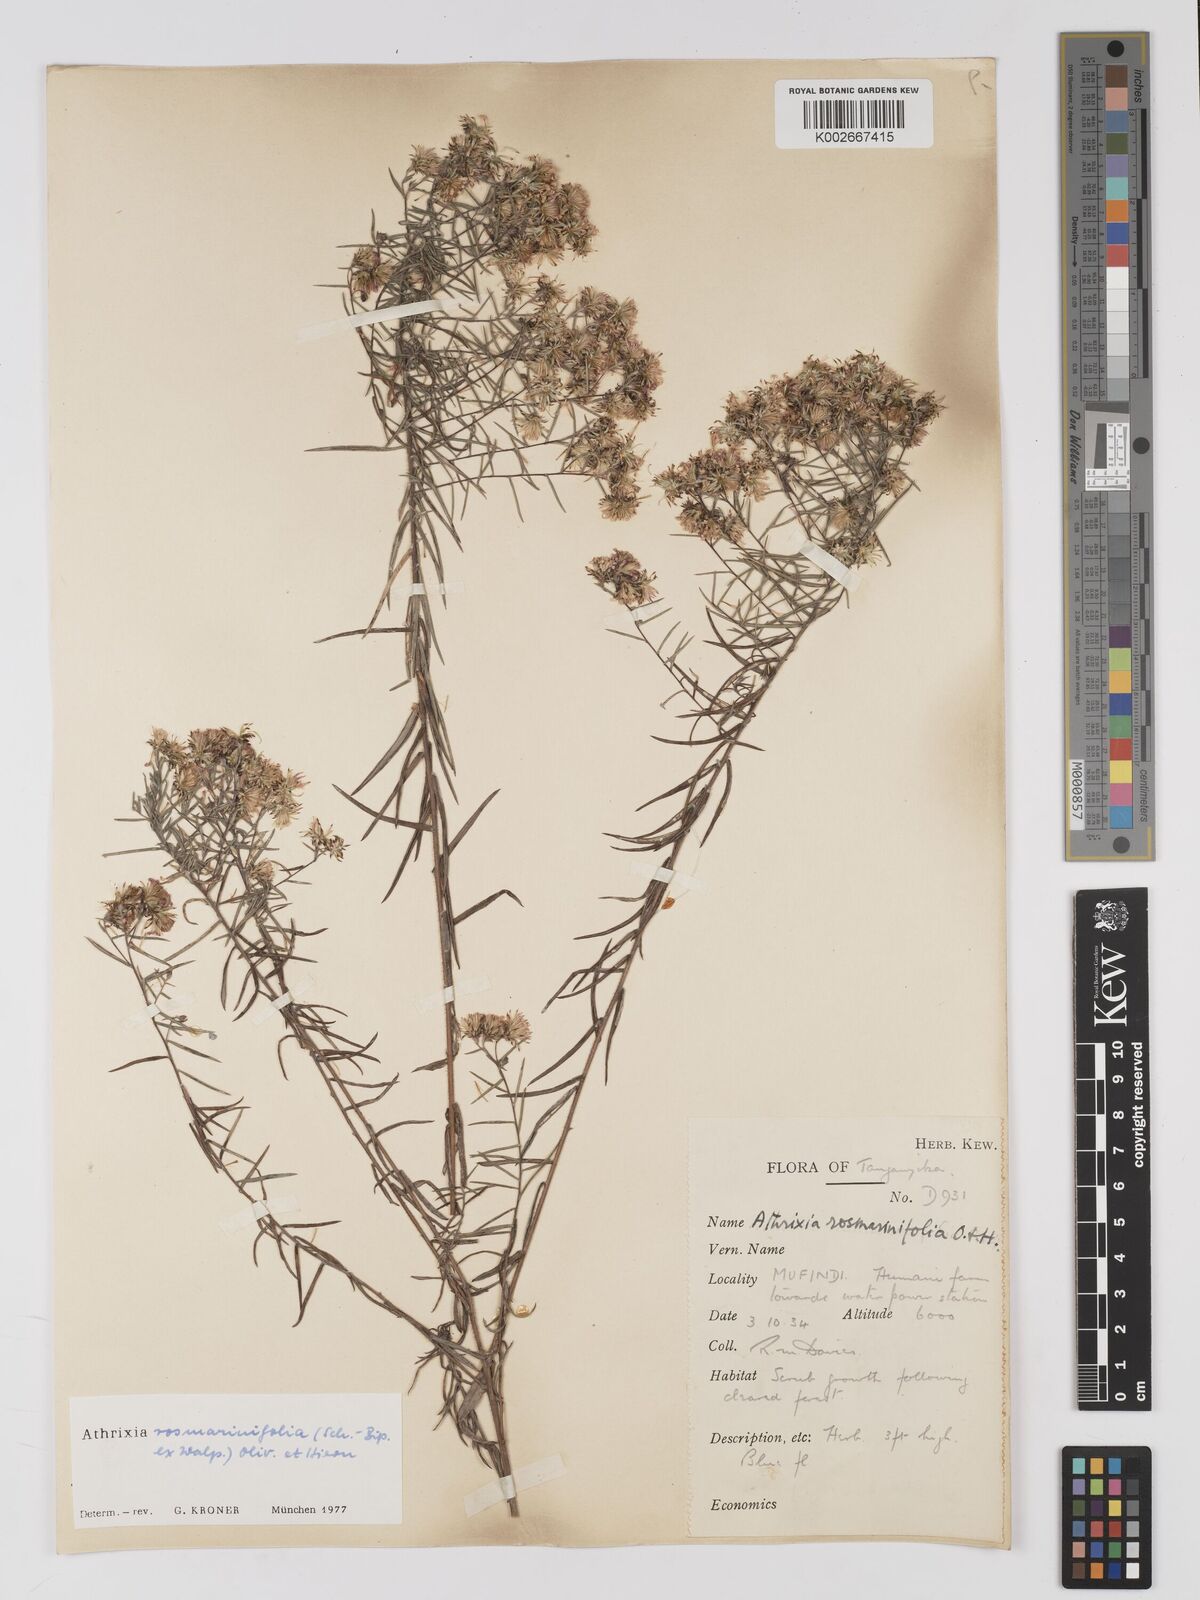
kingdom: Plantae
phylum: Tracheophyta
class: Magnoliopsida
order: Asterales
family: Asteraceae
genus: Athrixia
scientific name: Athrixia rosmarinifolia
